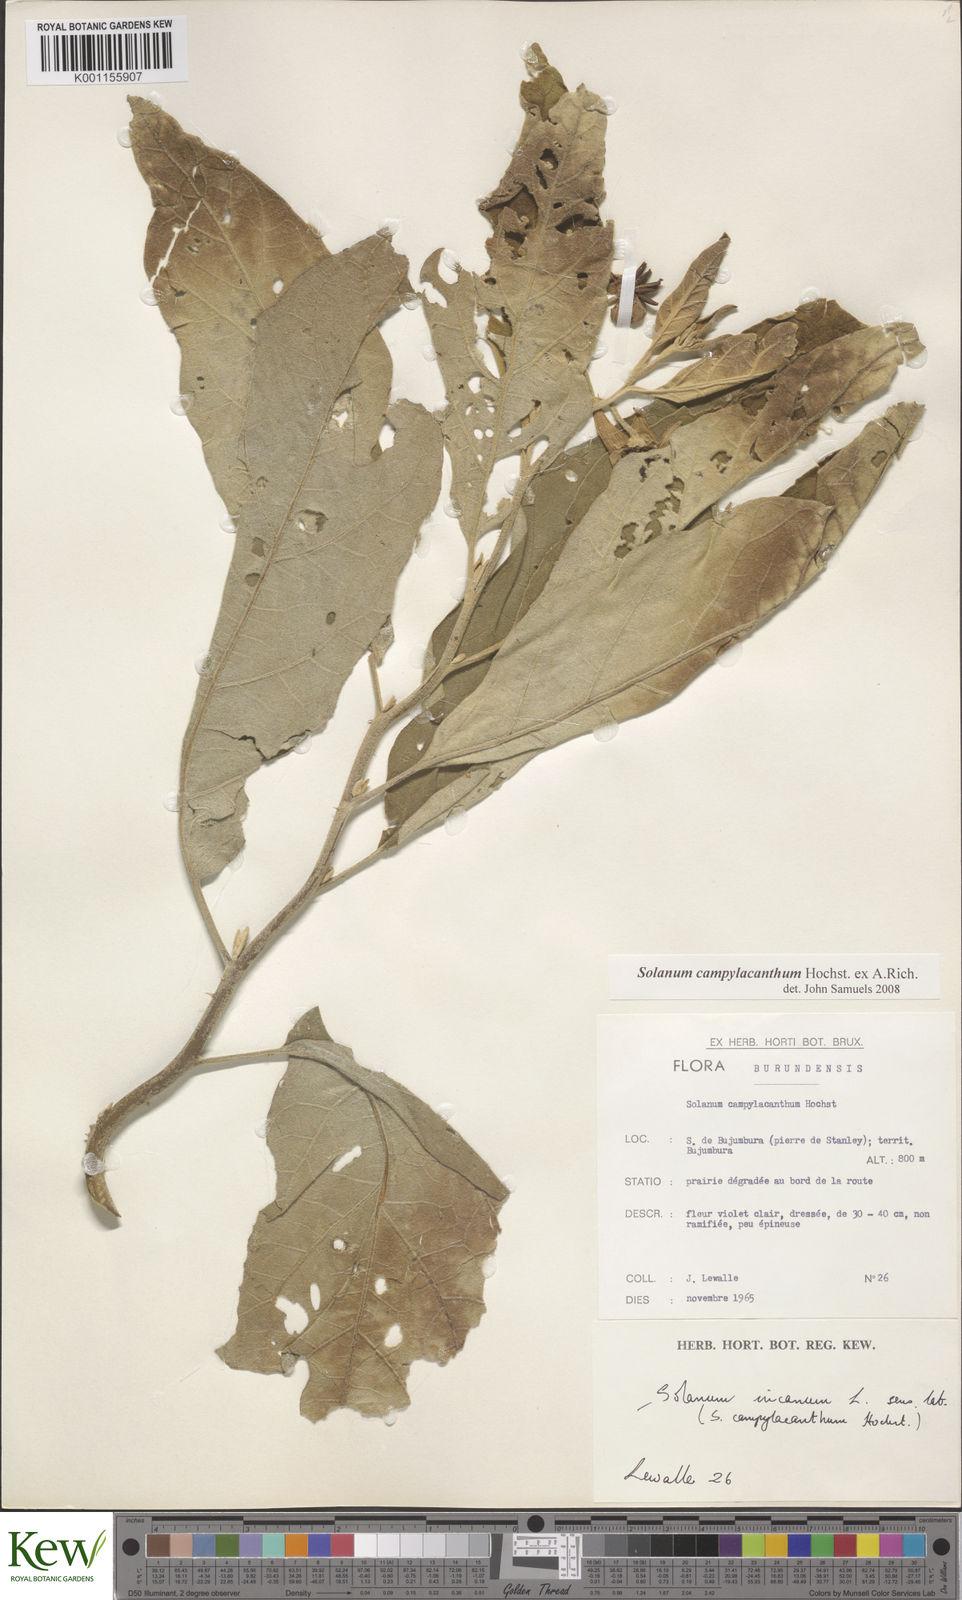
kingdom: Plantae
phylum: Tracheophyta
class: Magnoliopsida
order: Solanales
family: Solanaceae
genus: Solanum
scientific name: Solanum campylacanthum
